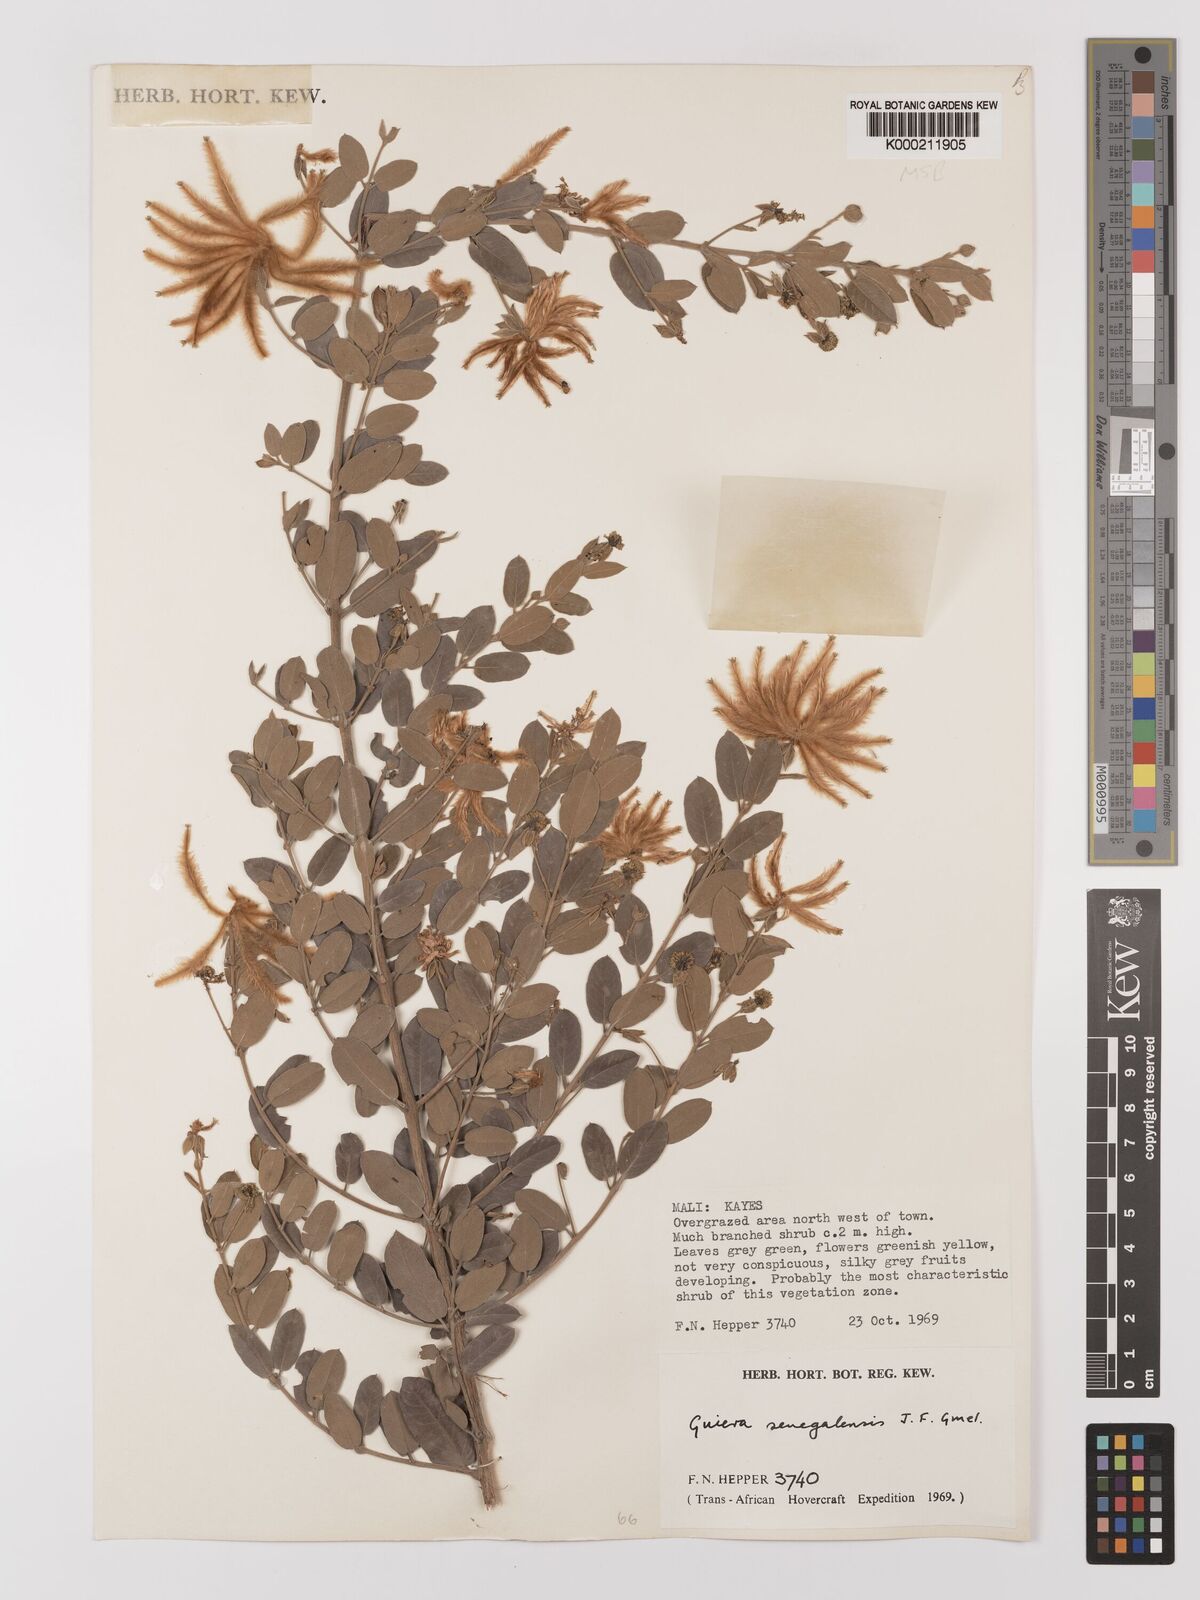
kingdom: Plantae
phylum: Tracheophyta
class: Magnoliopsida
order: Myrtales
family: Combretaceae
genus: Guiera
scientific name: Guiera senegalensis
